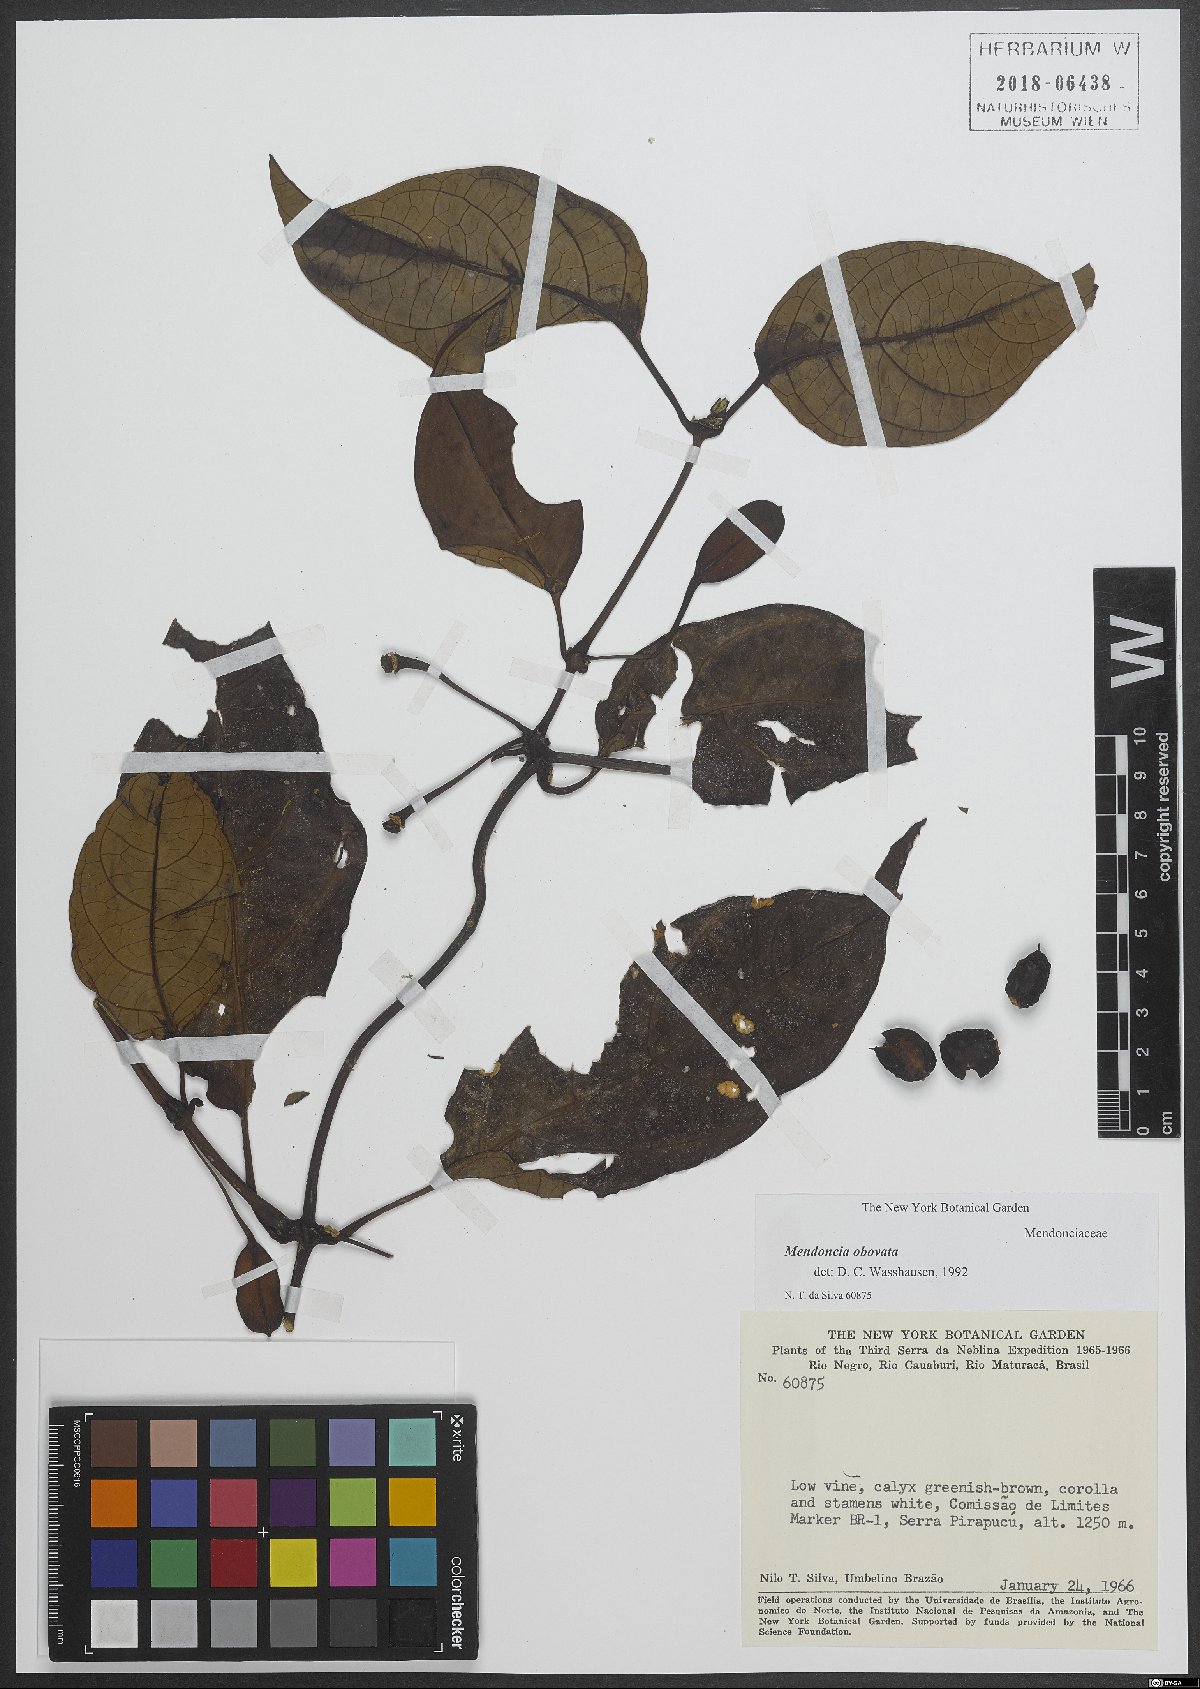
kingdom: Plantae
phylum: Tracheophyta
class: Magnoliopsida
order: Lamiales
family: Acanthaceae
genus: Mendoncia
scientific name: Mendoncia obovata
